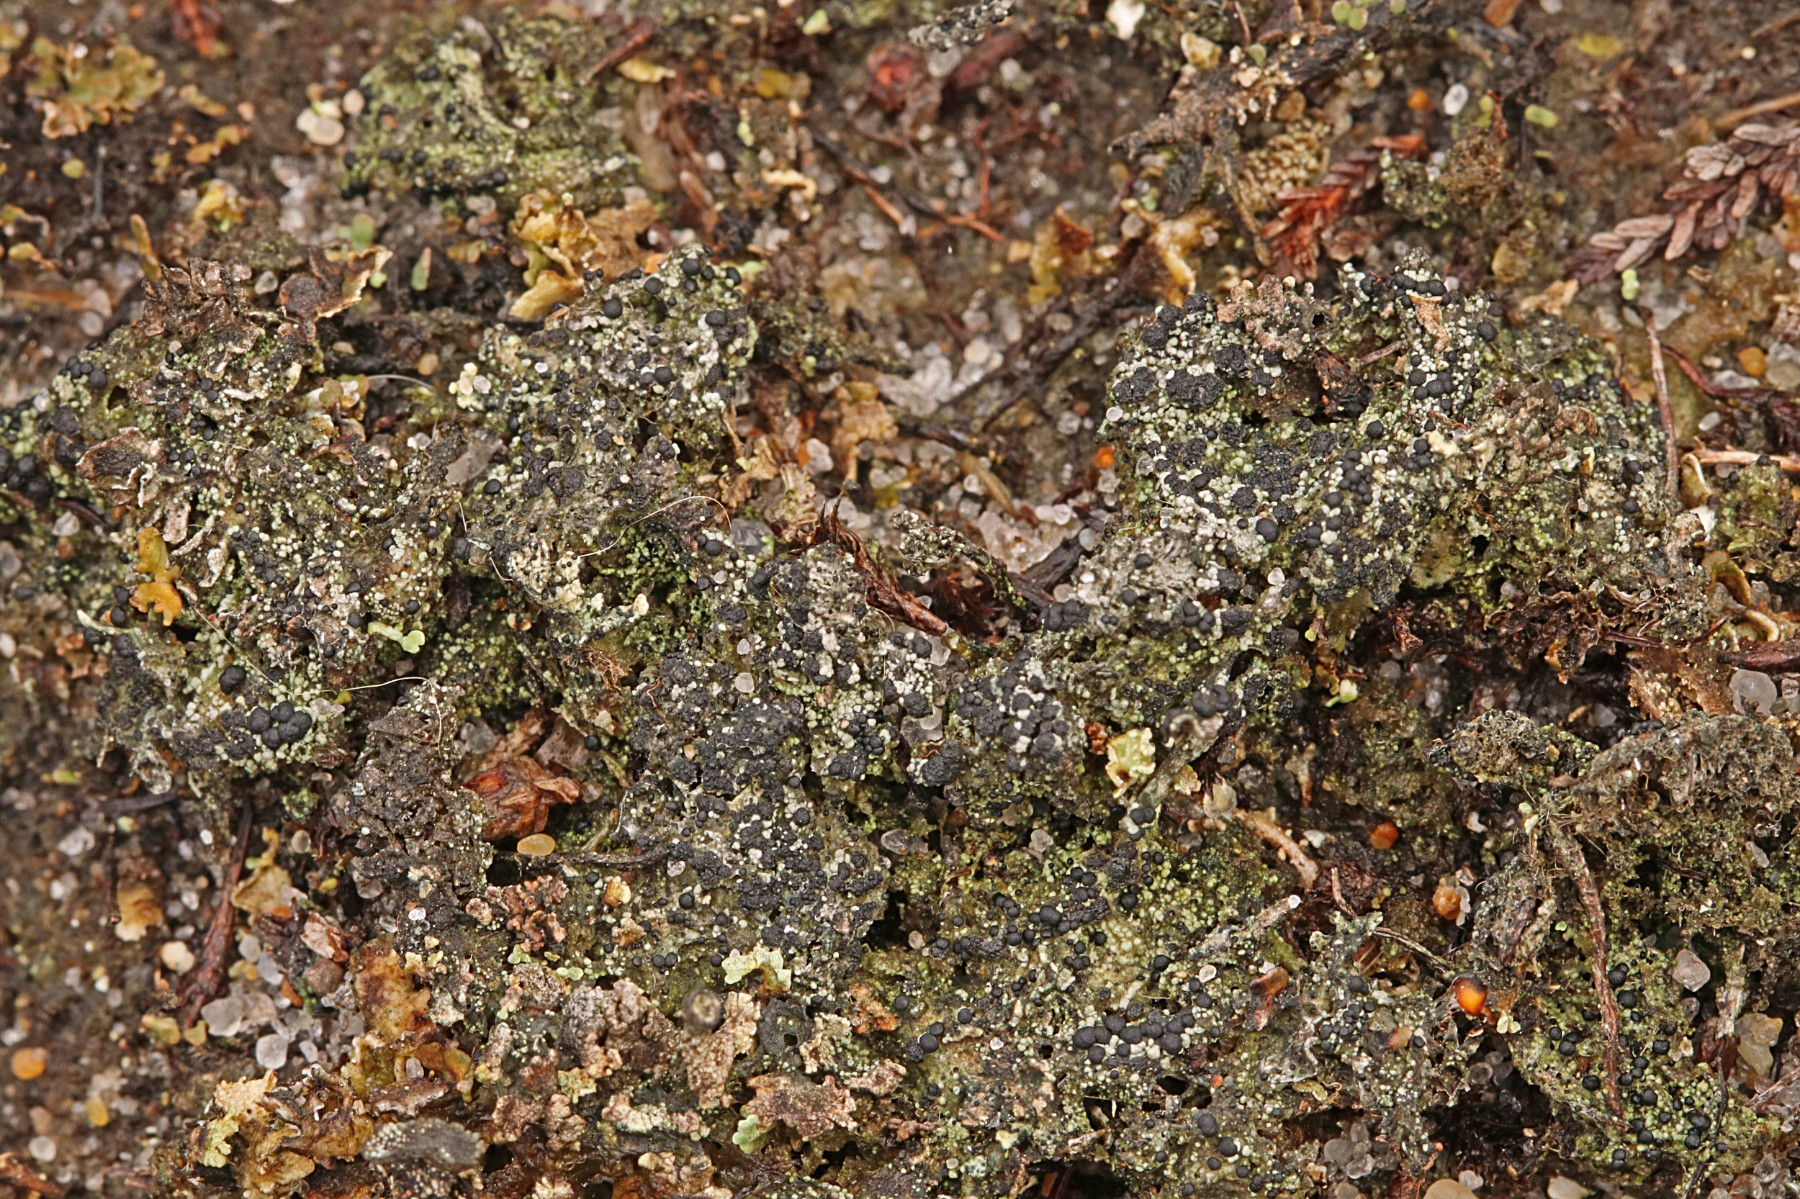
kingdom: Fungi
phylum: Ascomycota
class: Lecanoromycetes
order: Lecanorales
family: Byssolomataceae
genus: Micarea
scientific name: Micarea lignaria
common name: tørve-knaplav
